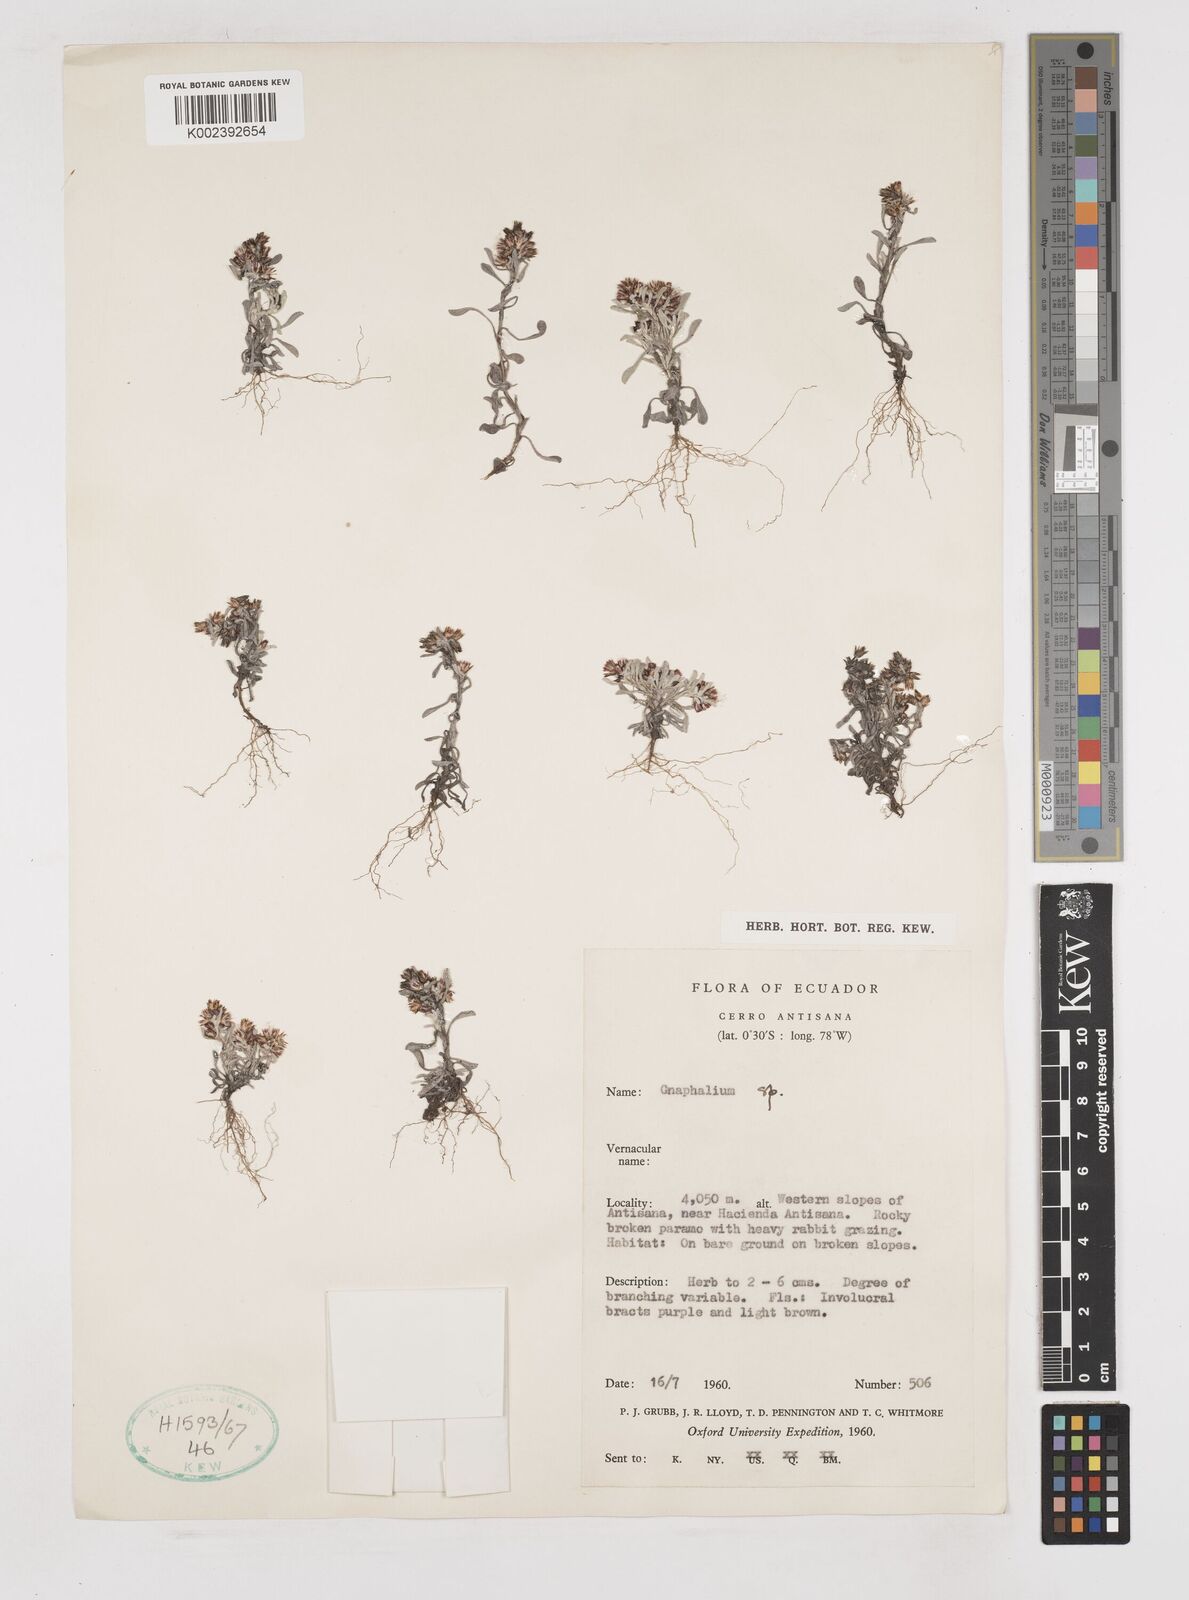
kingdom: Plantae
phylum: Tracheophyta
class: Magnoliopsida
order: Asterales
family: Asteraceae
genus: Gnaphalium
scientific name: Gnaphalium
